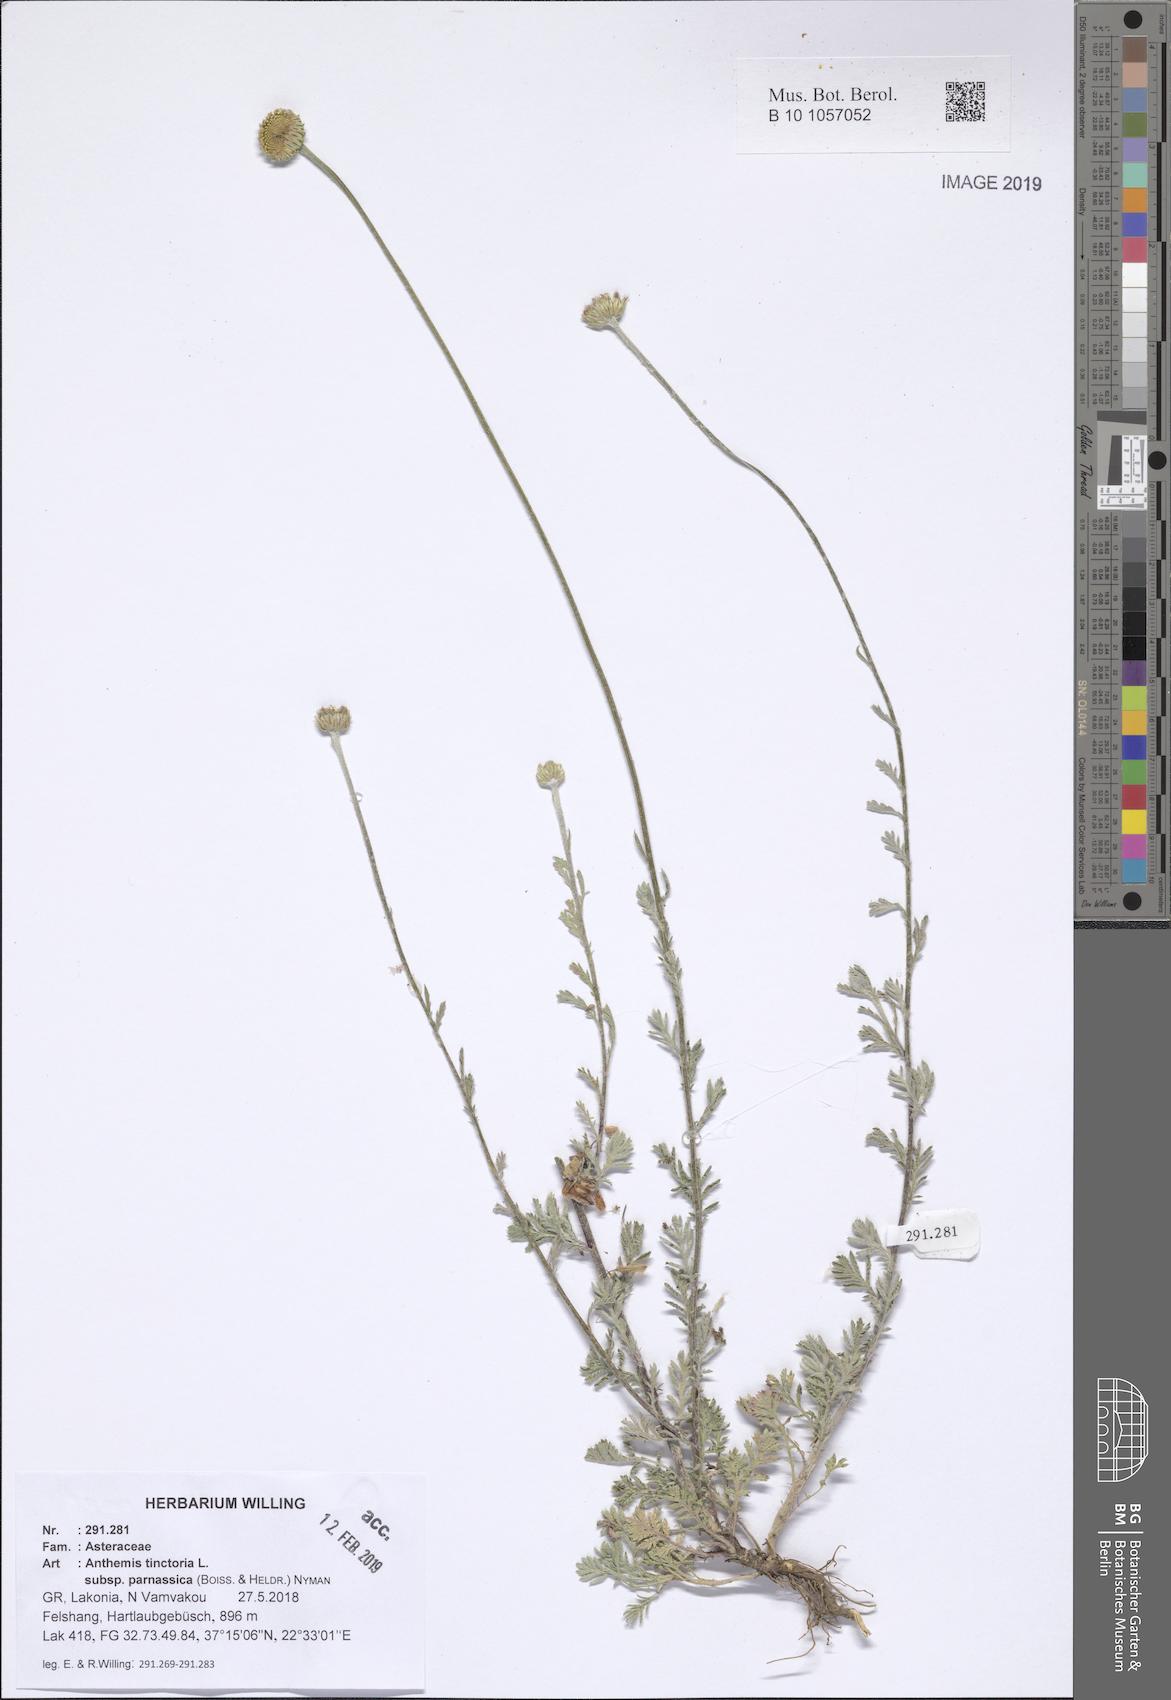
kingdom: Plantae
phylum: Tracheophyta
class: Magnoliopsida
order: Asterales
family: Asteraceae
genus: Cota
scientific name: Cota tinctoria
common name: Golden chamomile
